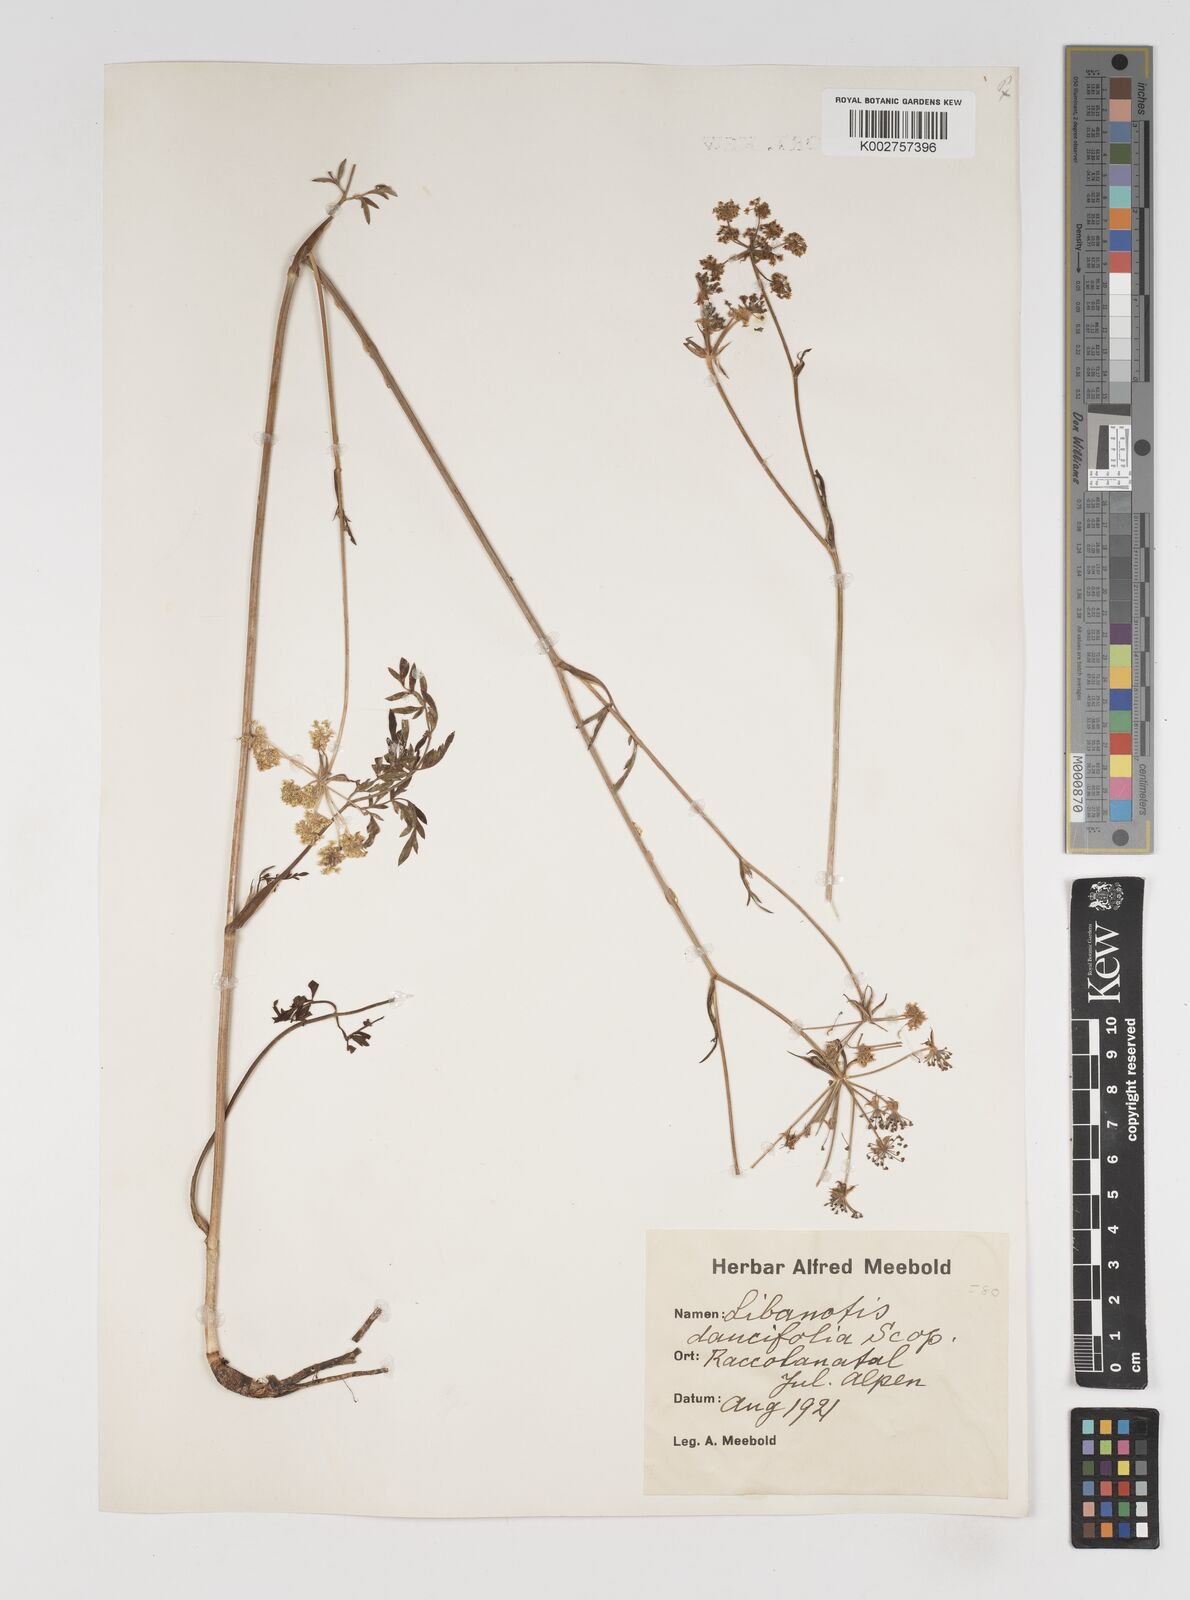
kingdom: Plantae
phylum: Tracheophyta
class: Magnoliopsida
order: Apiales
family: Apiaceae
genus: Cnidium
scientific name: Cnidium monnieri
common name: Monnier's snowparsley
